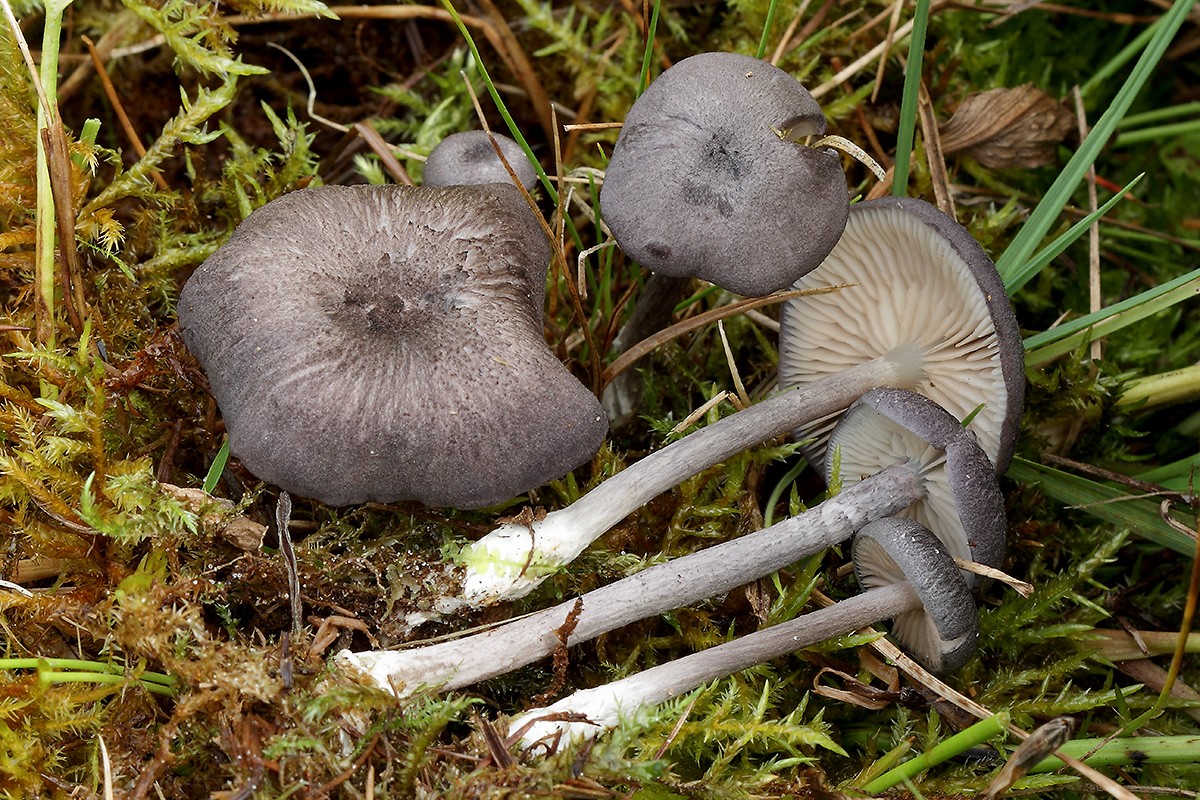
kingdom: Fungi
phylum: Basidiomycota
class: Agaricomycetes
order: Agaricales
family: Entolomataceae
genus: Entoloma
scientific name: Entoloma mougeotii
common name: violetgrå rødblad
